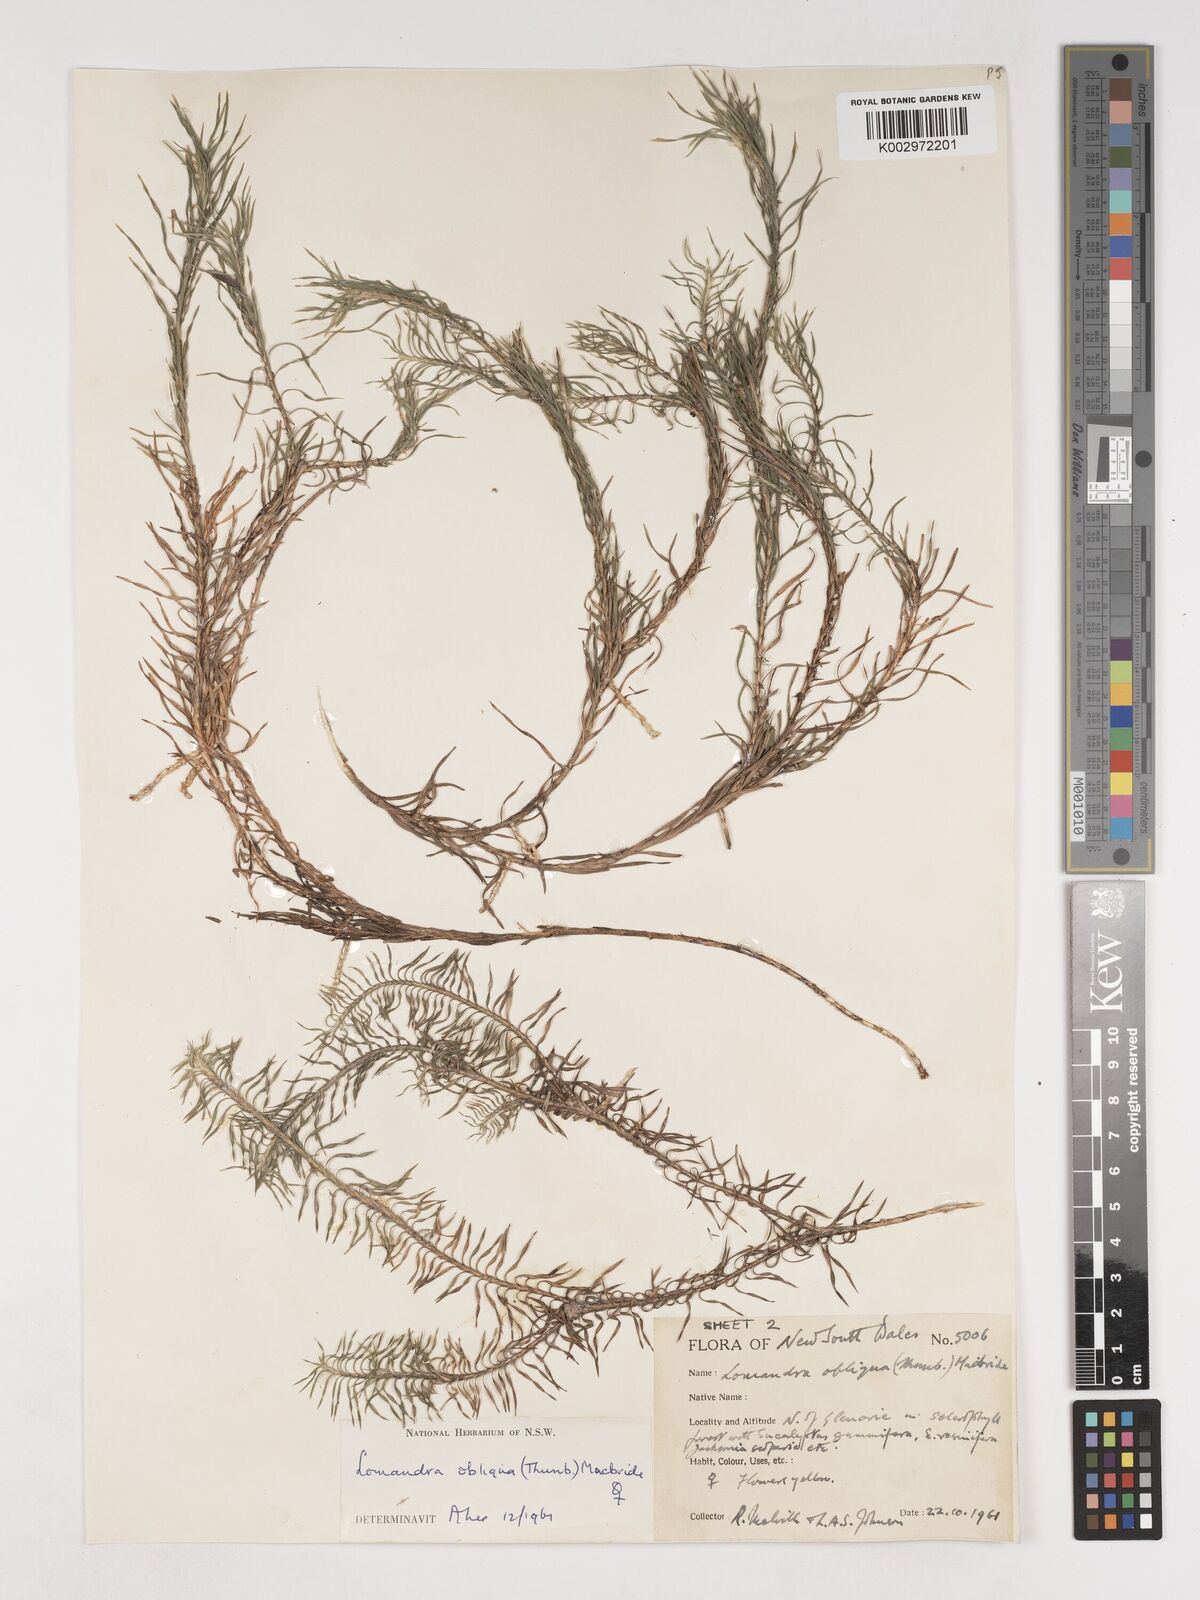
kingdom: Plantae
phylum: Tracheophyta
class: Liliopsida
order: Asparagales
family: Asparagaceae
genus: Lomandra
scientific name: Lomandra obliqua
